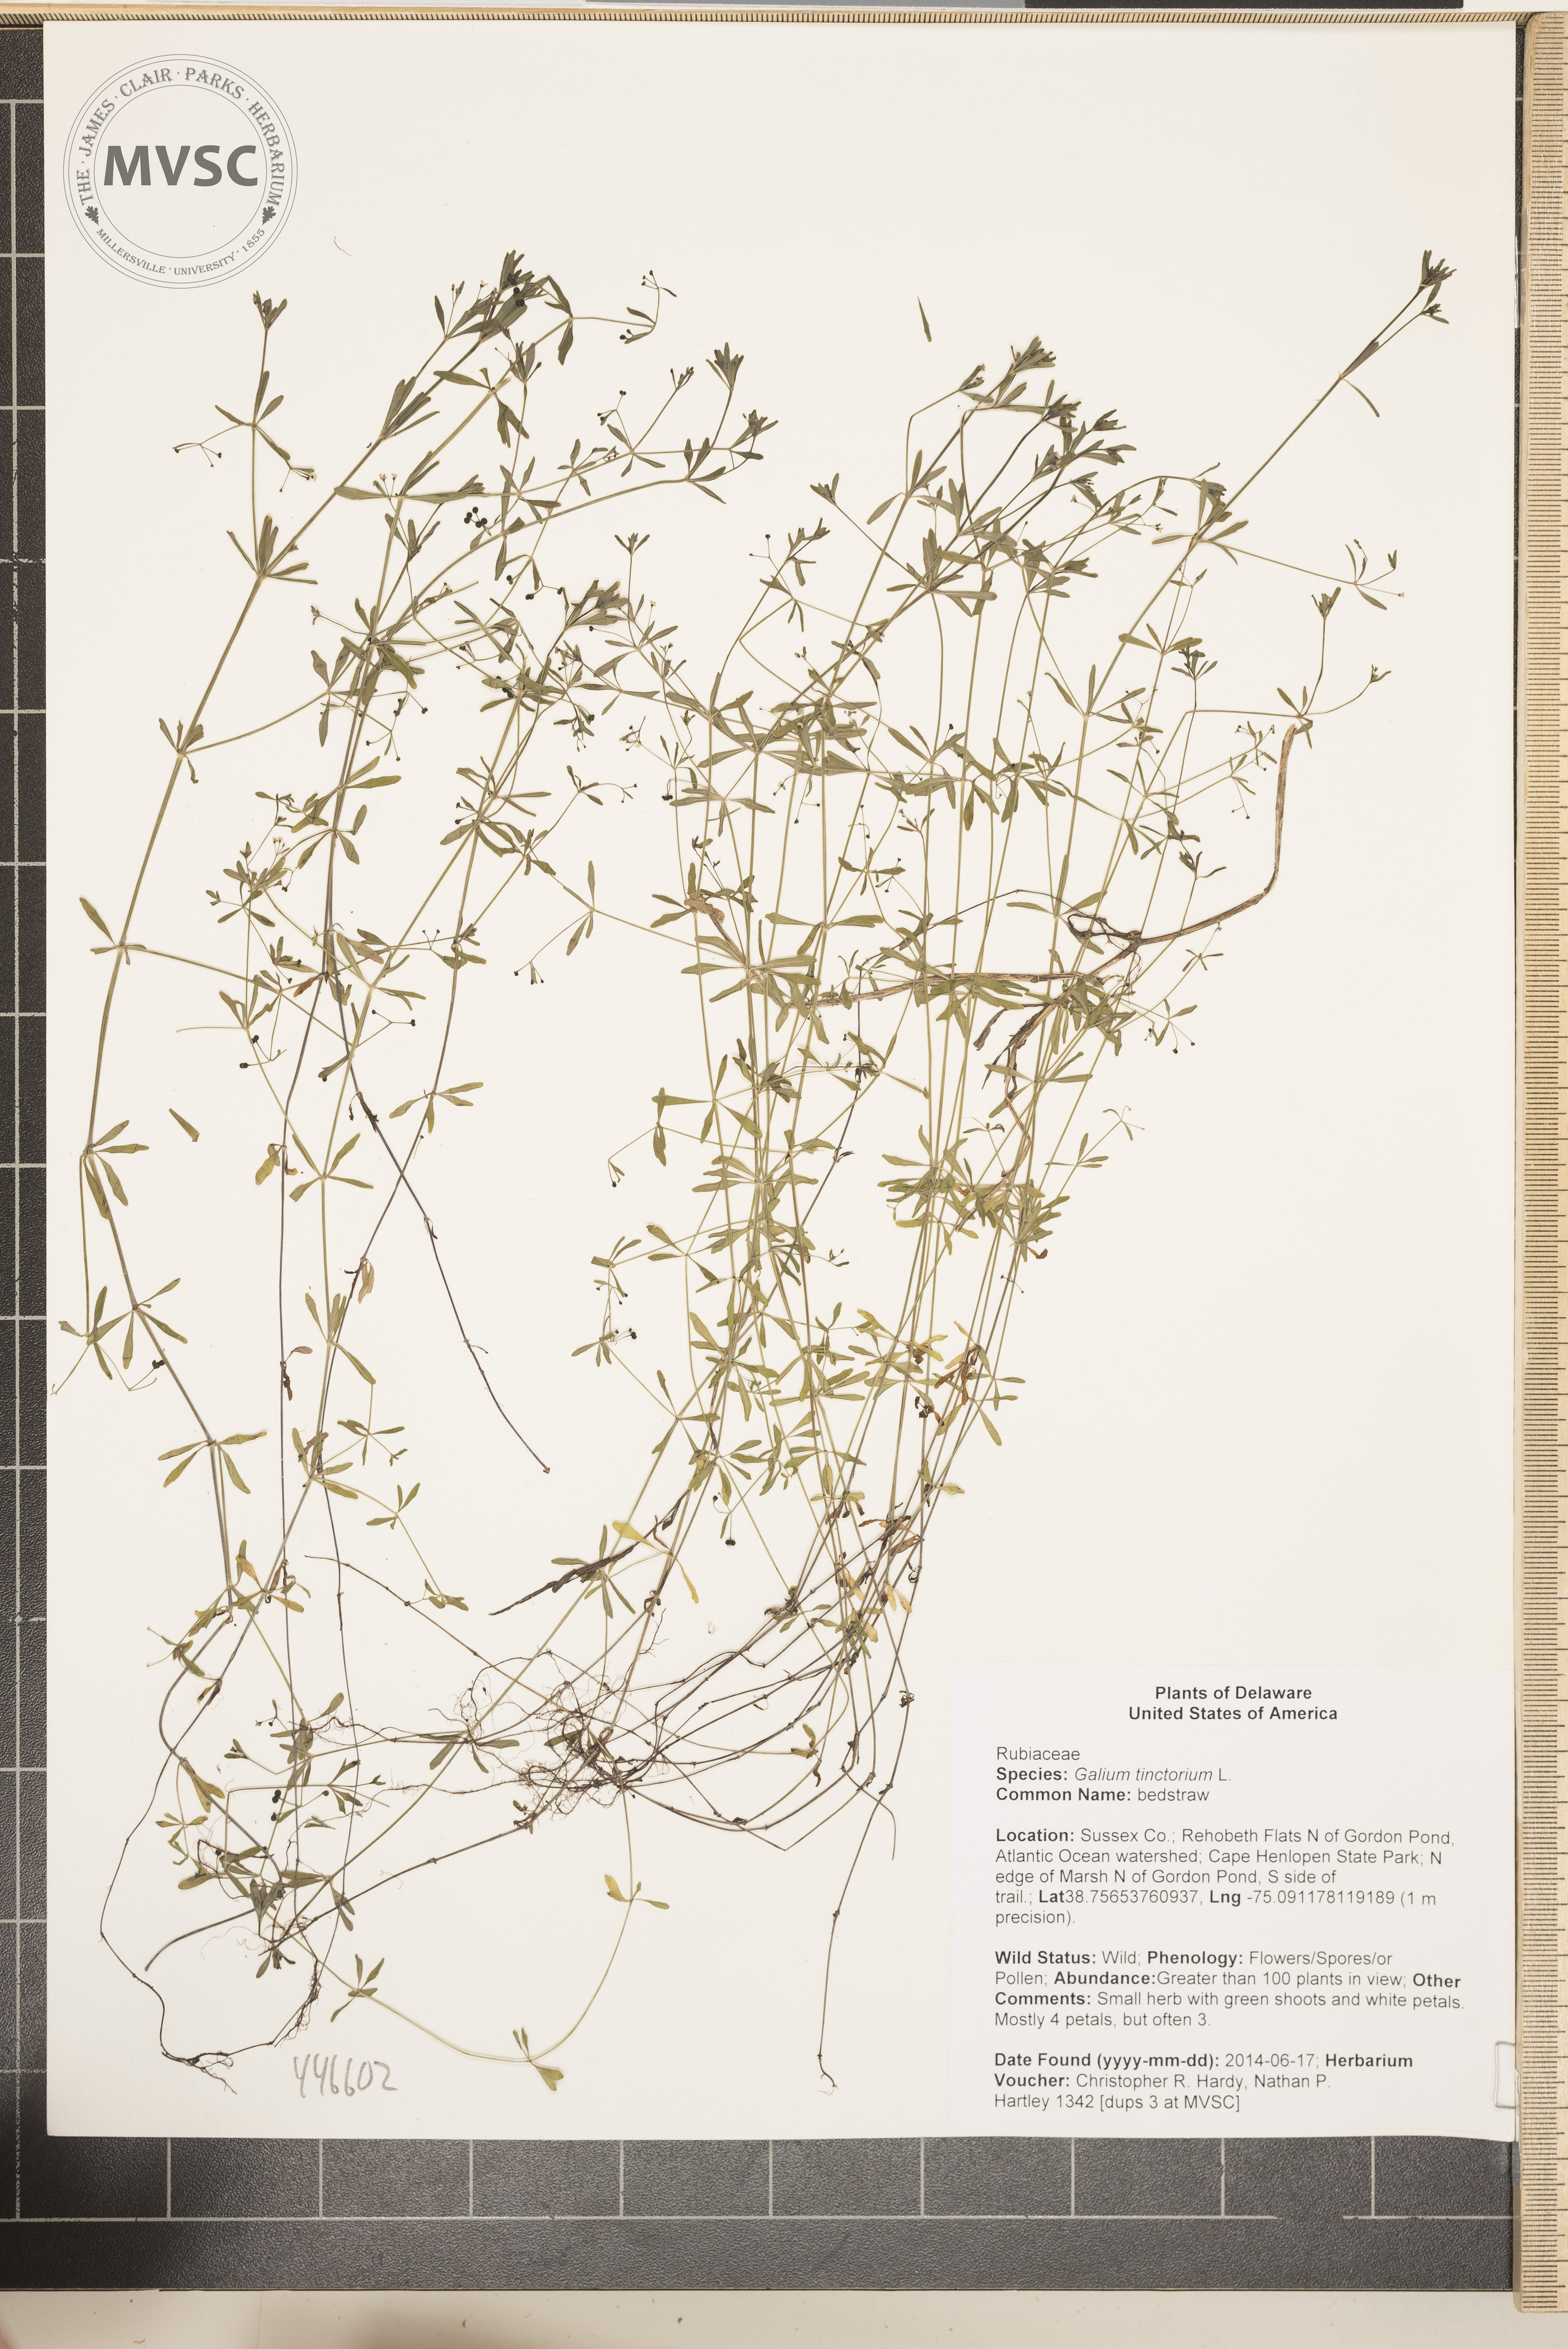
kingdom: Plantae
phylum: Tracheophyta
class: Magnoliopsida
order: Gentianales
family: Rubiaceae
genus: Galium
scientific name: Galium tinctorium
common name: bedstraw
